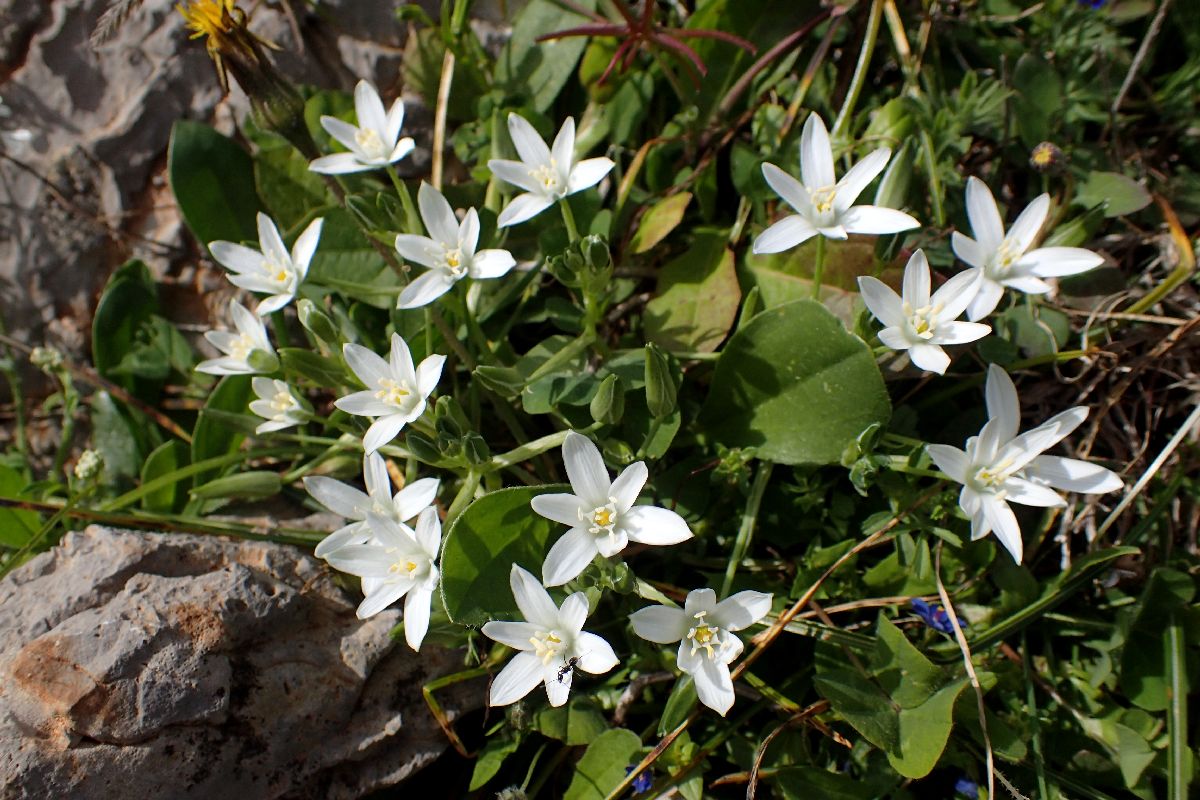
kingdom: Plantae
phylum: Tracheophyta
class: Liliopsida
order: Asparagales
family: Asparagaceae
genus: Ornithogalum
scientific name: Ornithogalum divergens
